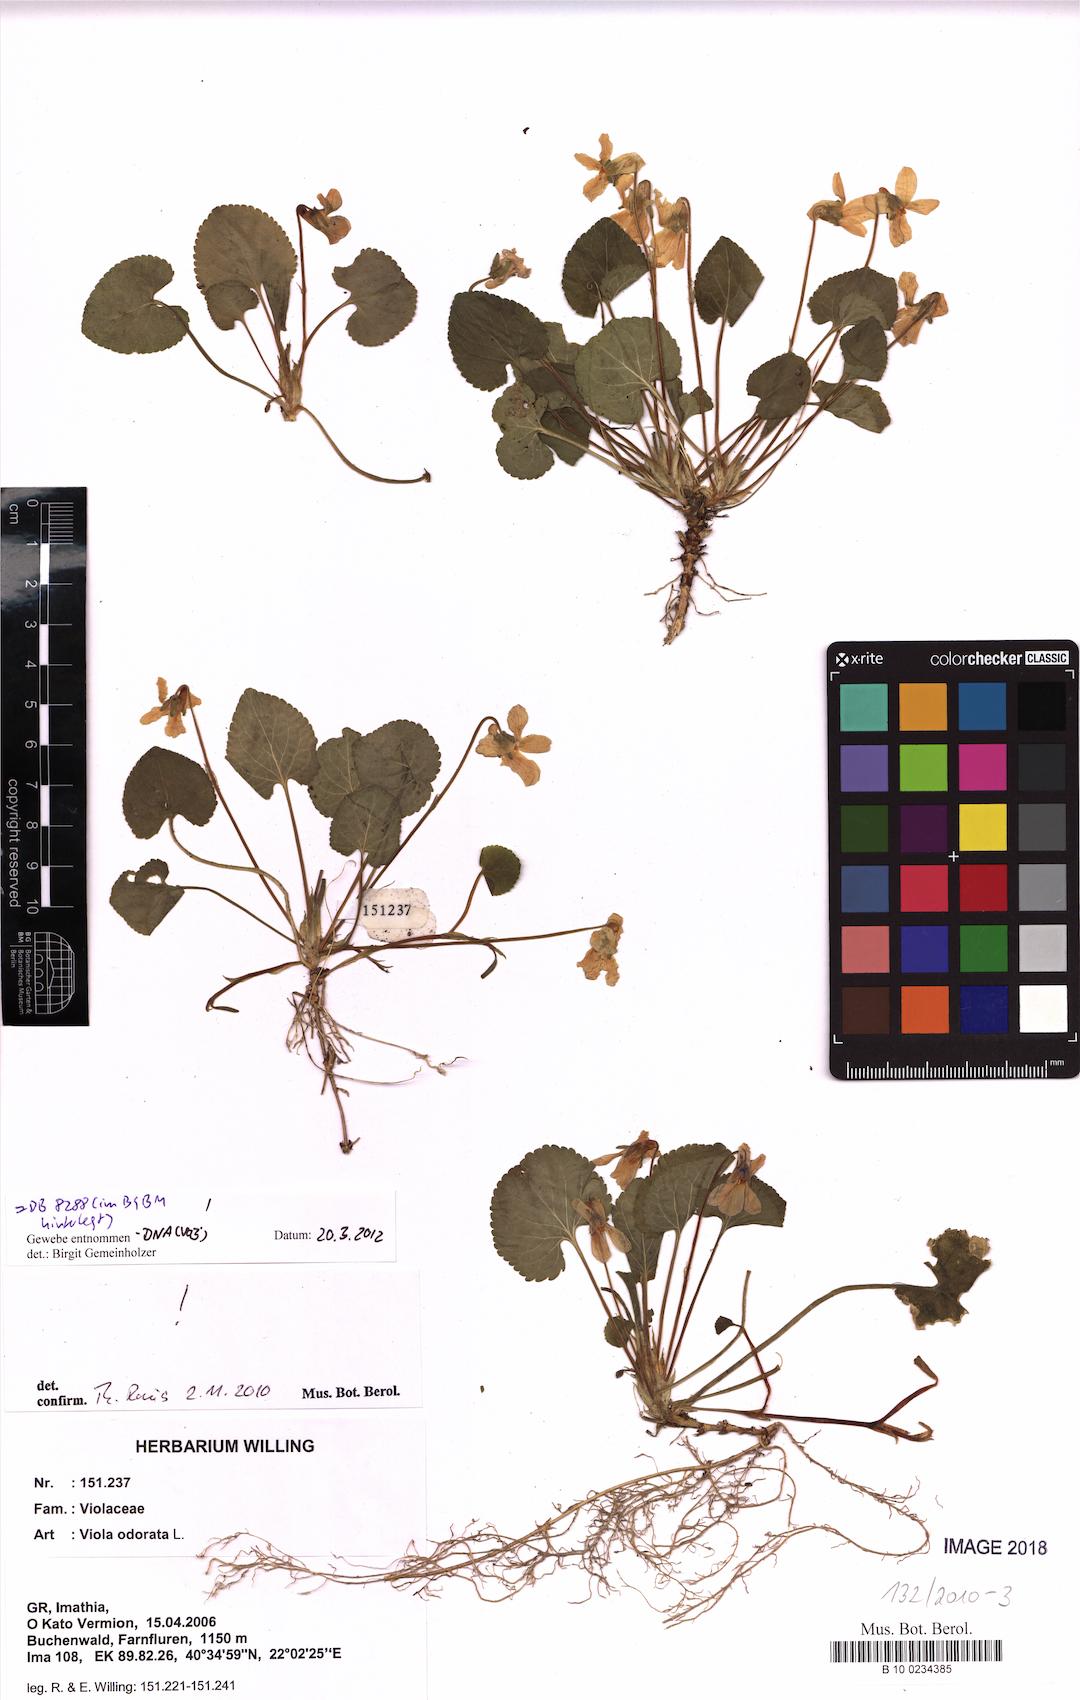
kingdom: Plantae
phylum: Tracheophyta
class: Magnoliopsida
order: Malpighiales
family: Violaceae
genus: Viola
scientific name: Viola odorata
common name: Sweet violet
